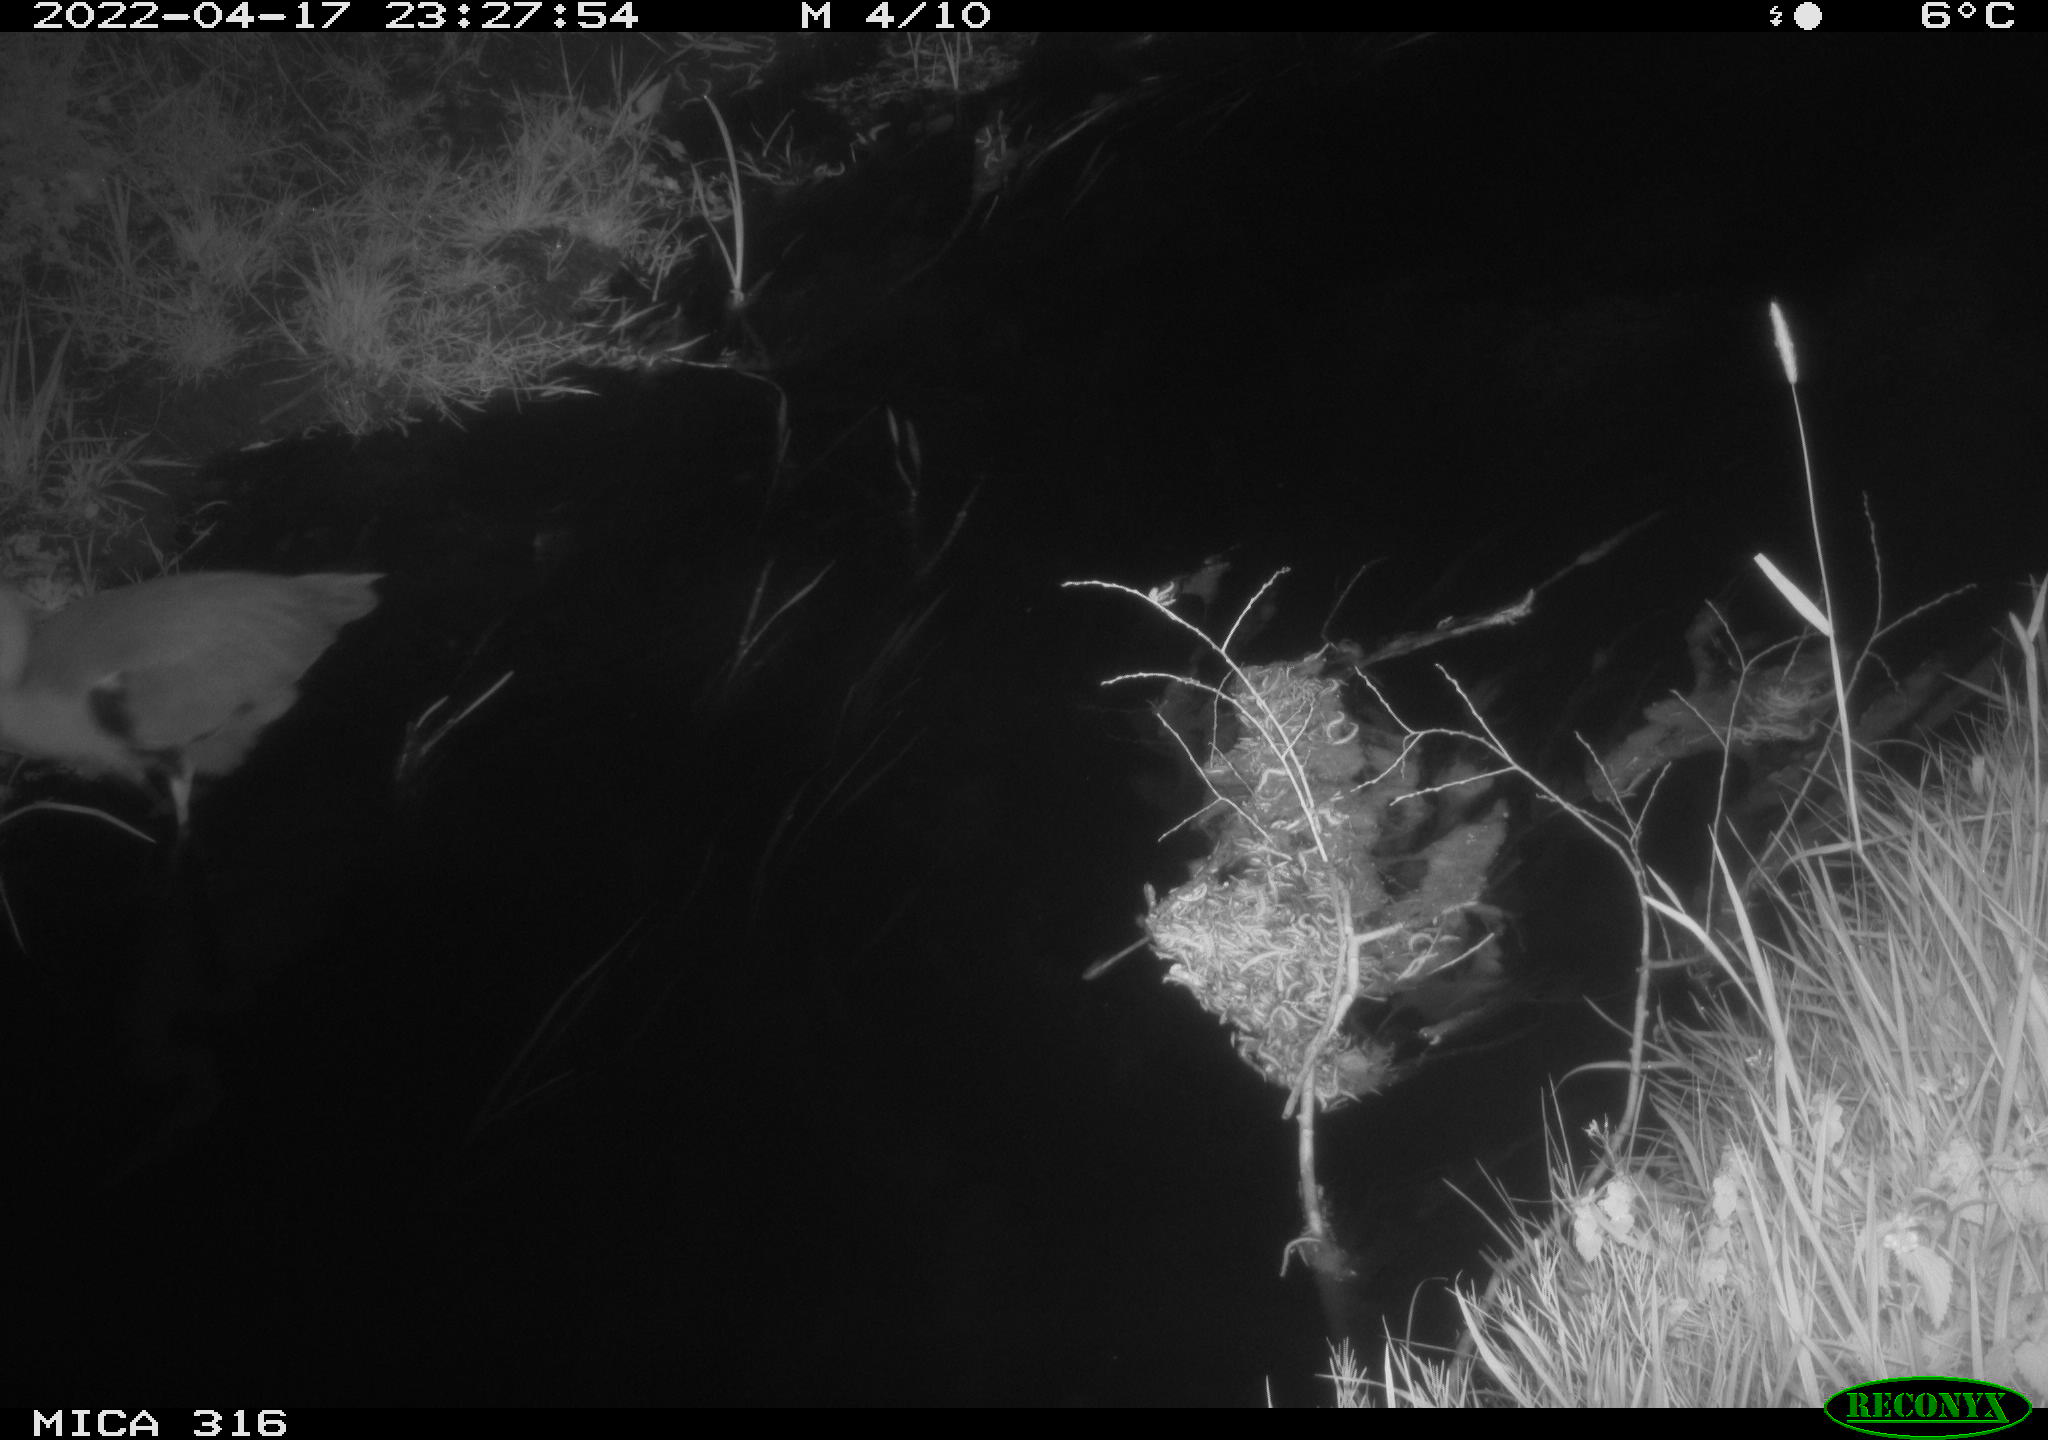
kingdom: Animalia
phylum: Chordata
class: Aves
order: Pelecaniformes
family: Ardeidae
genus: Ardea
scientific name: Ardea
